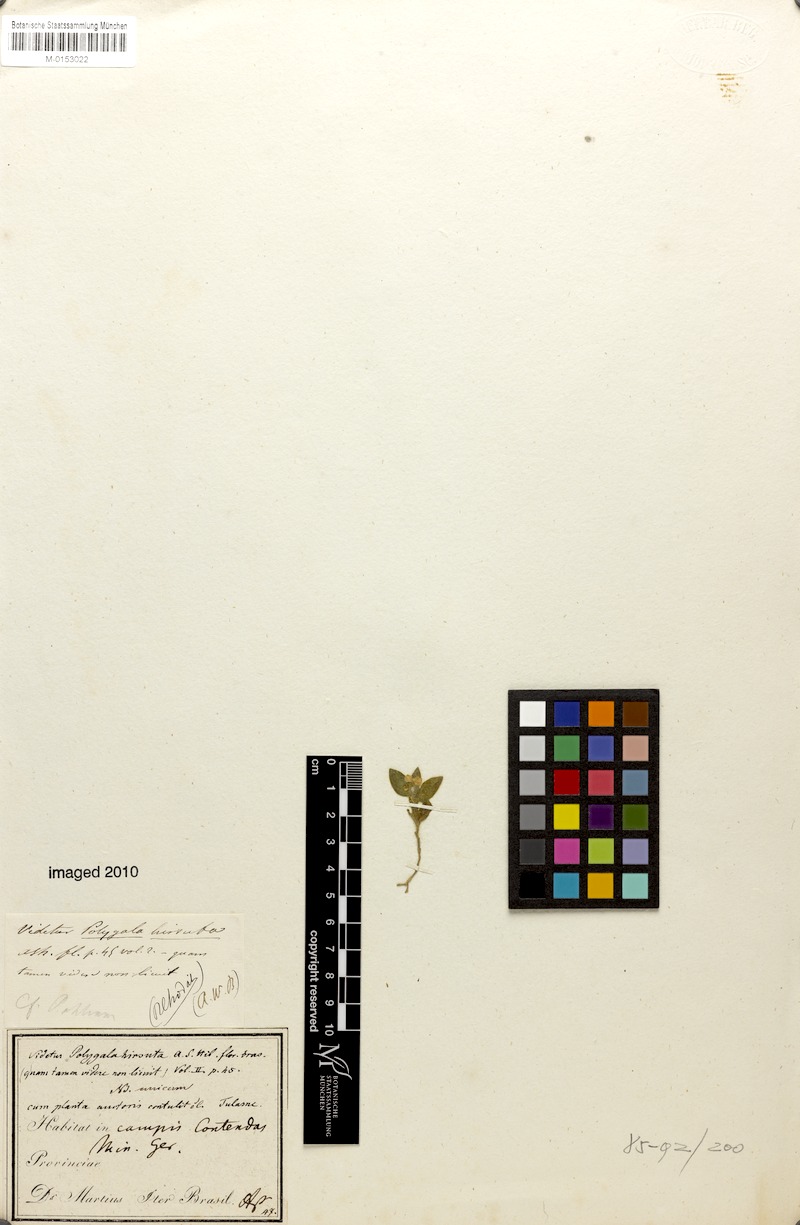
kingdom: Plantae
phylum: Tracheophyta
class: Magnoliopsida
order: Fabales
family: Polygalaceae
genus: Asemeia
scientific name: Asemeia hirsuta
